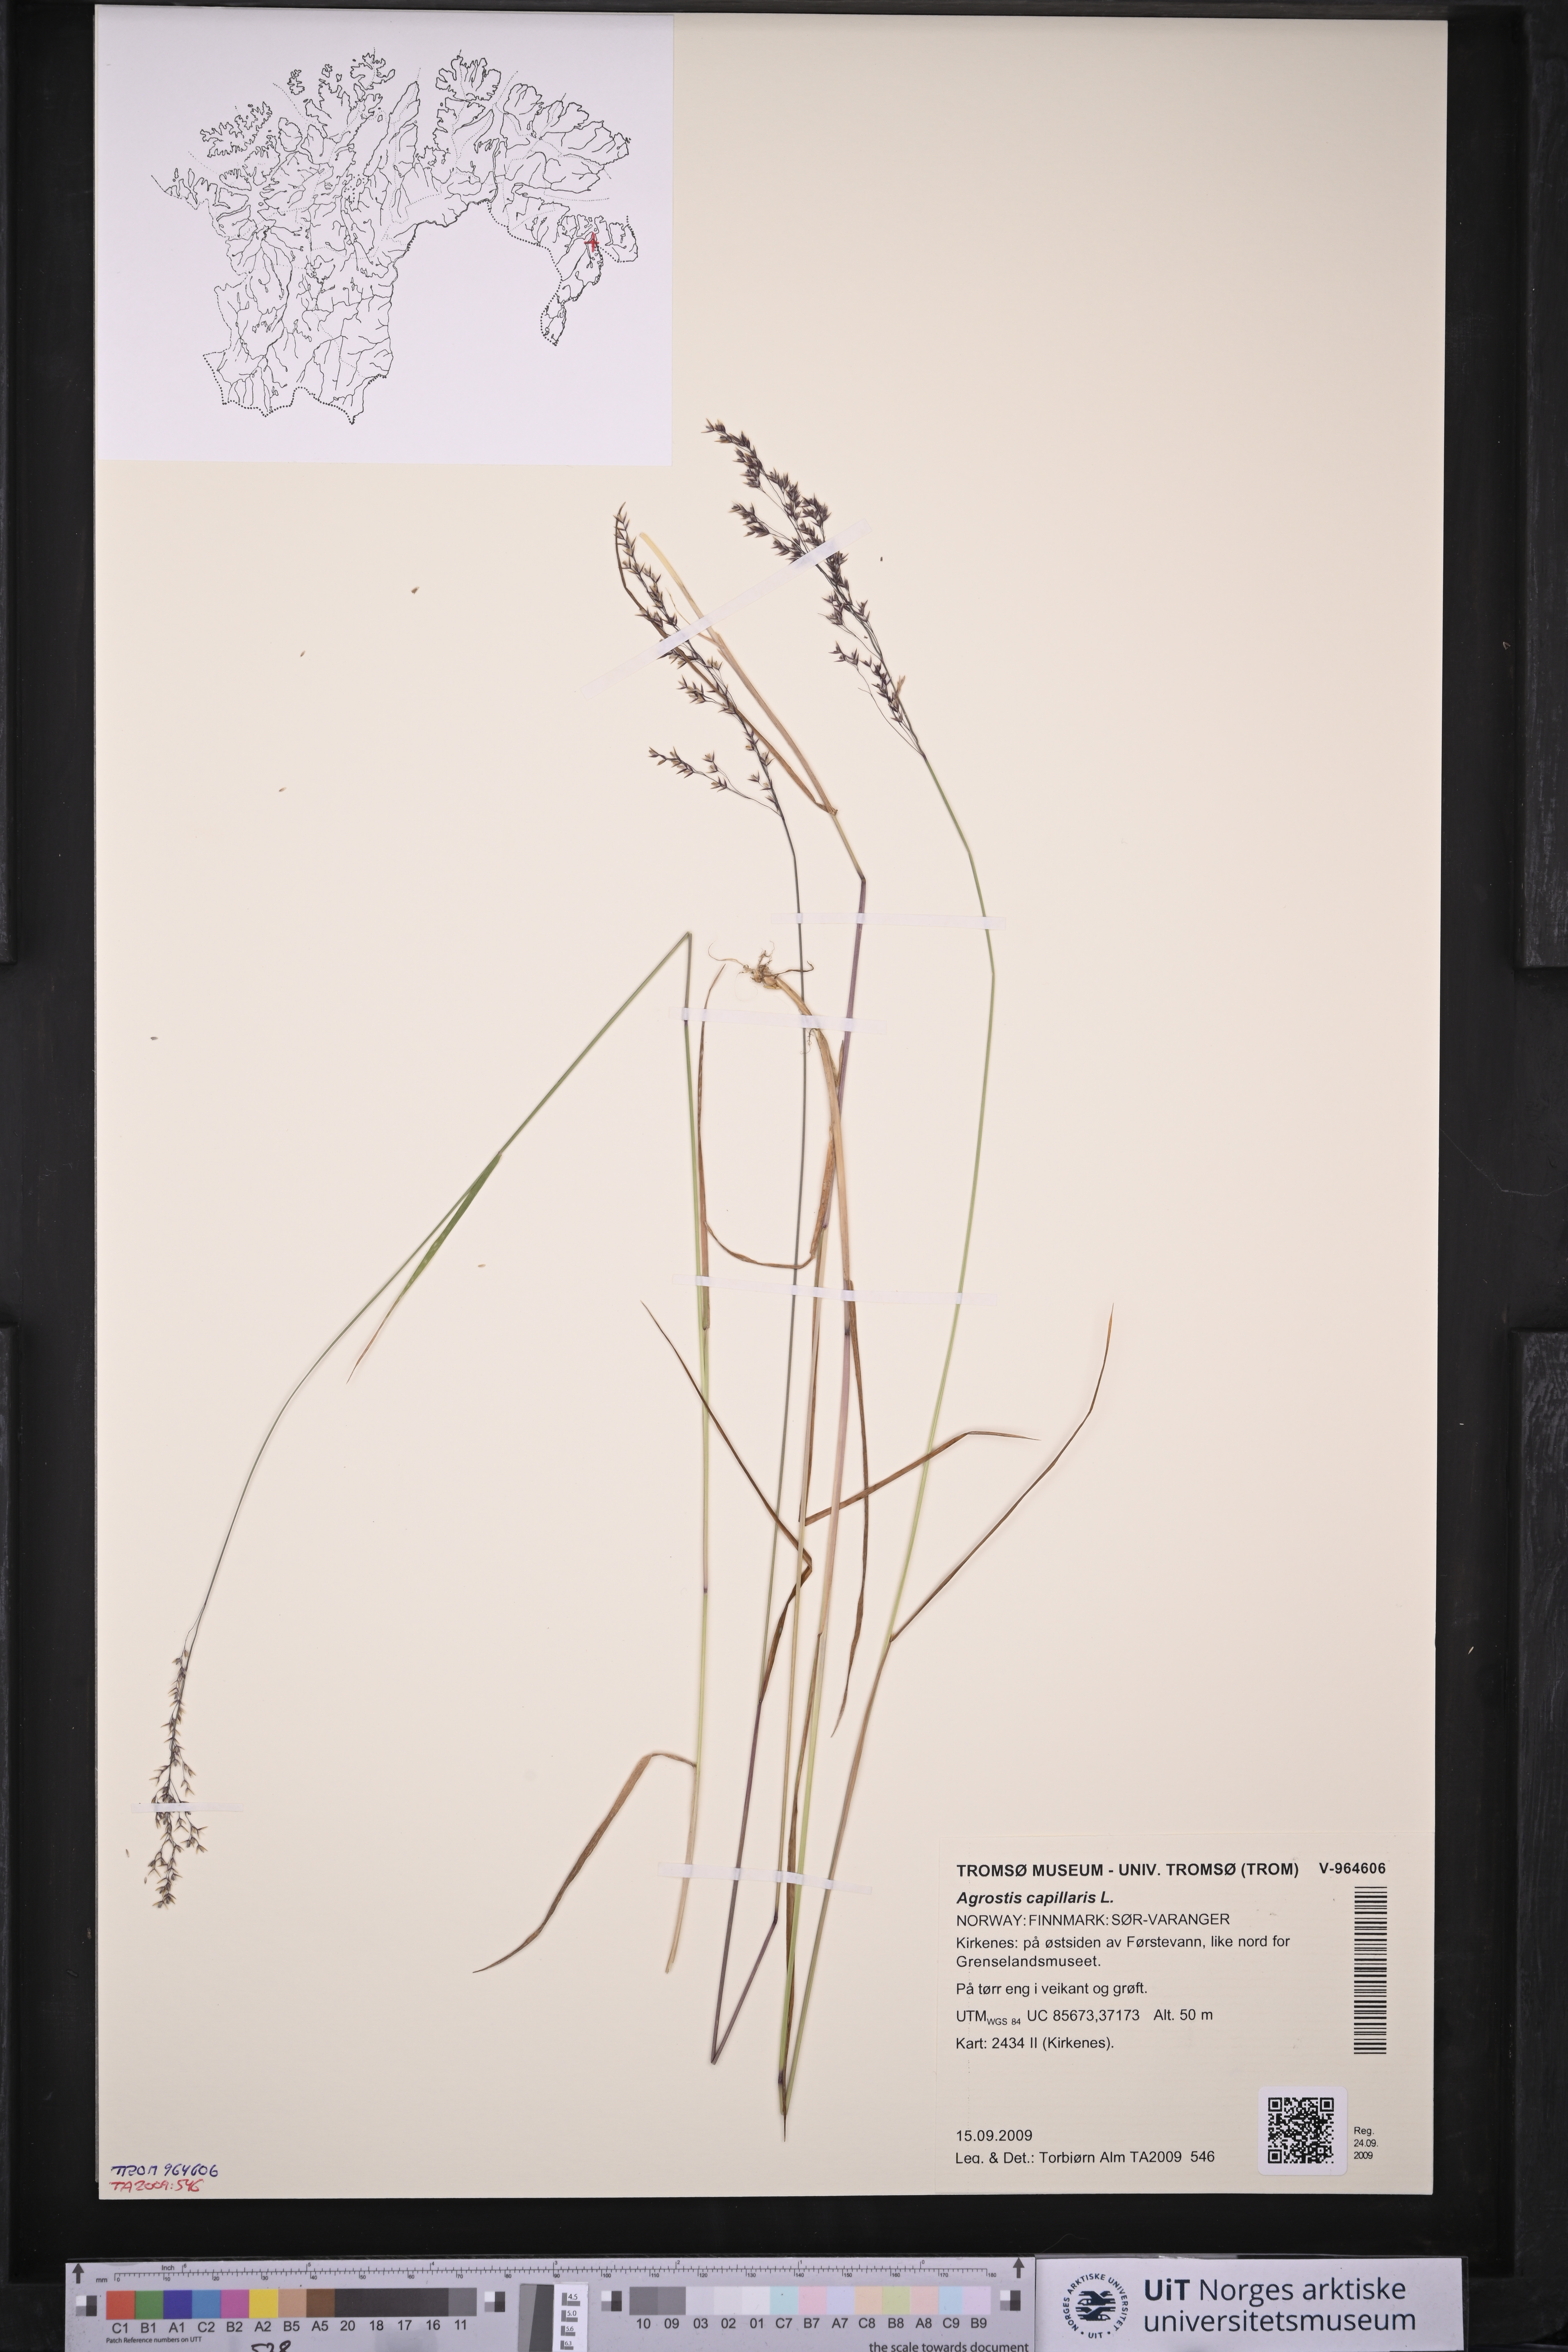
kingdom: Plantae
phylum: Tracheophyta
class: Liliopsida
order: Poales
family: Poaceae
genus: Agrostis
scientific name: Agrostis capillaris
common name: Colonial bentgrass
